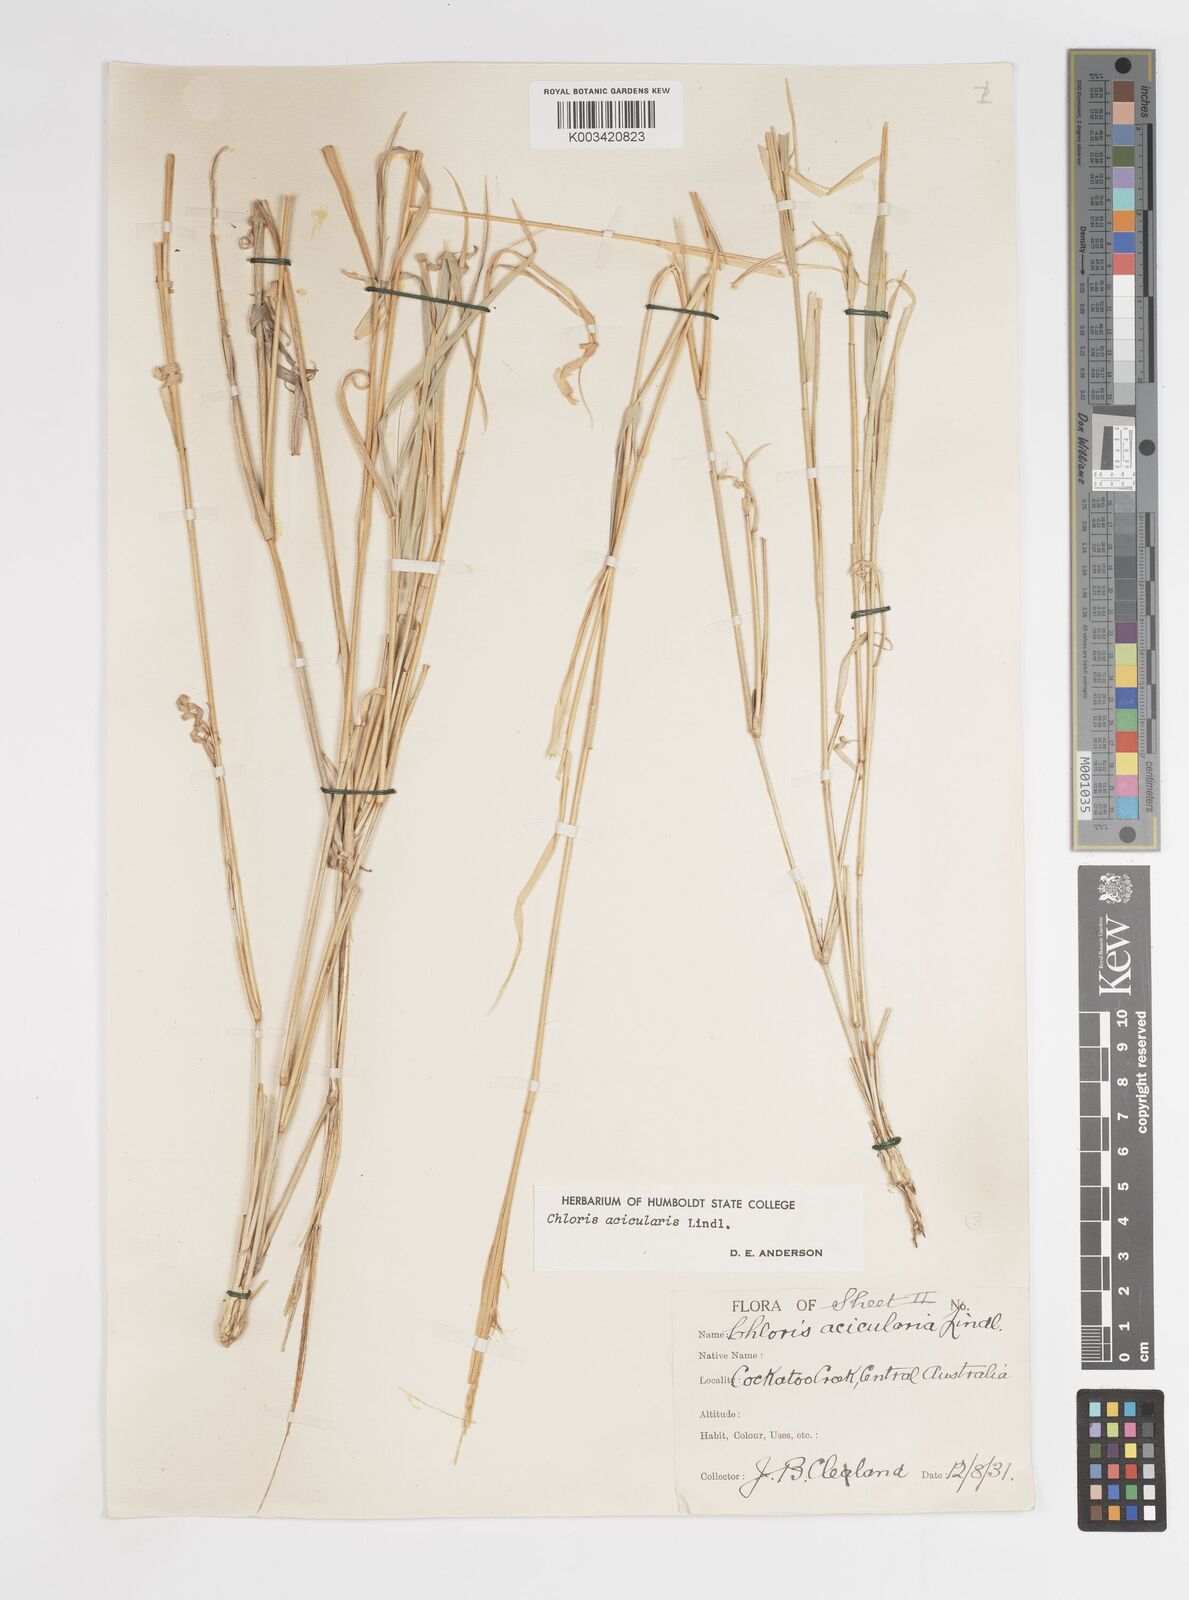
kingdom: Plantae
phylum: Tracheophyta
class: Liliopsida
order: Poales
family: Poaceae
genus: Enteropogon
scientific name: Enteropogon acicularis
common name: Curly windmill grass
